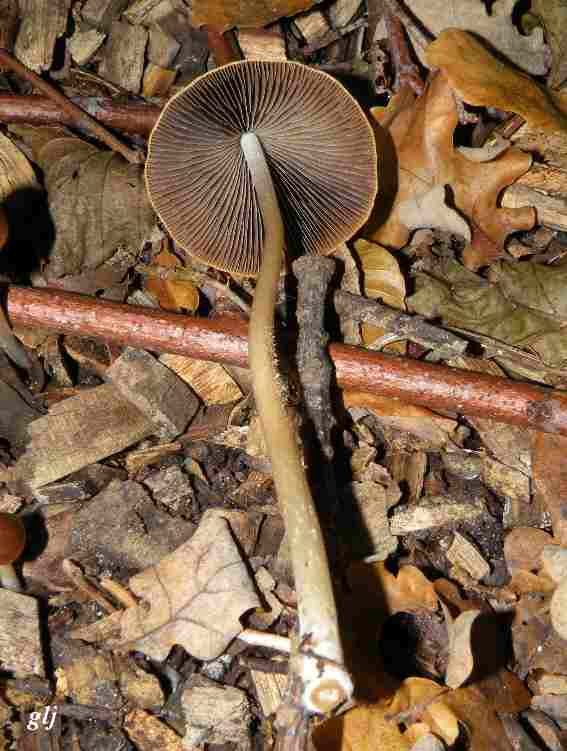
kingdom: Fungi
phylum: Basidiomycota
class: Agaricomycetes
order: Agaricales
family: Psathyrellaceae
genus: Parasola
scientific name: Parasola conopilea
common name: kegle-hjulhat
